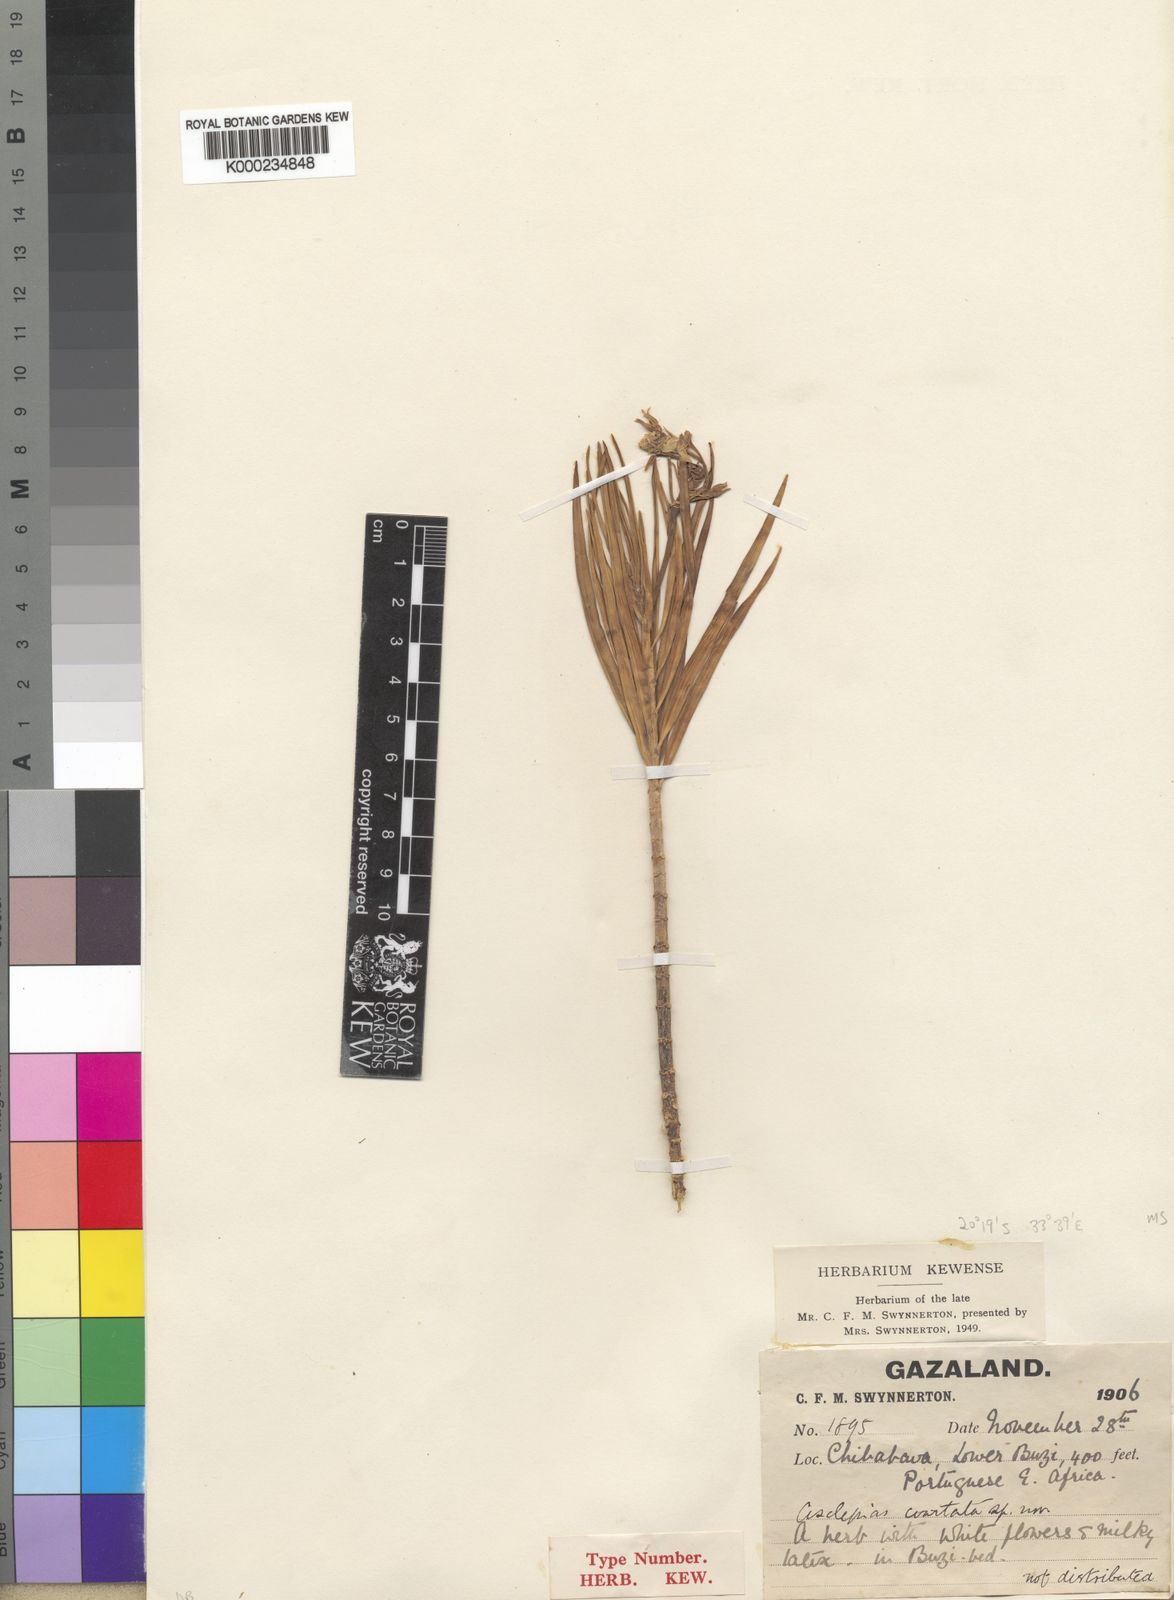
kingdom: Plantae
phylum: Tracheophyta
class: Magnoliopsida
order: Gentianales
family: Apocynaceae
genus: Kanahia
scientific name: Kanahia laniflora
